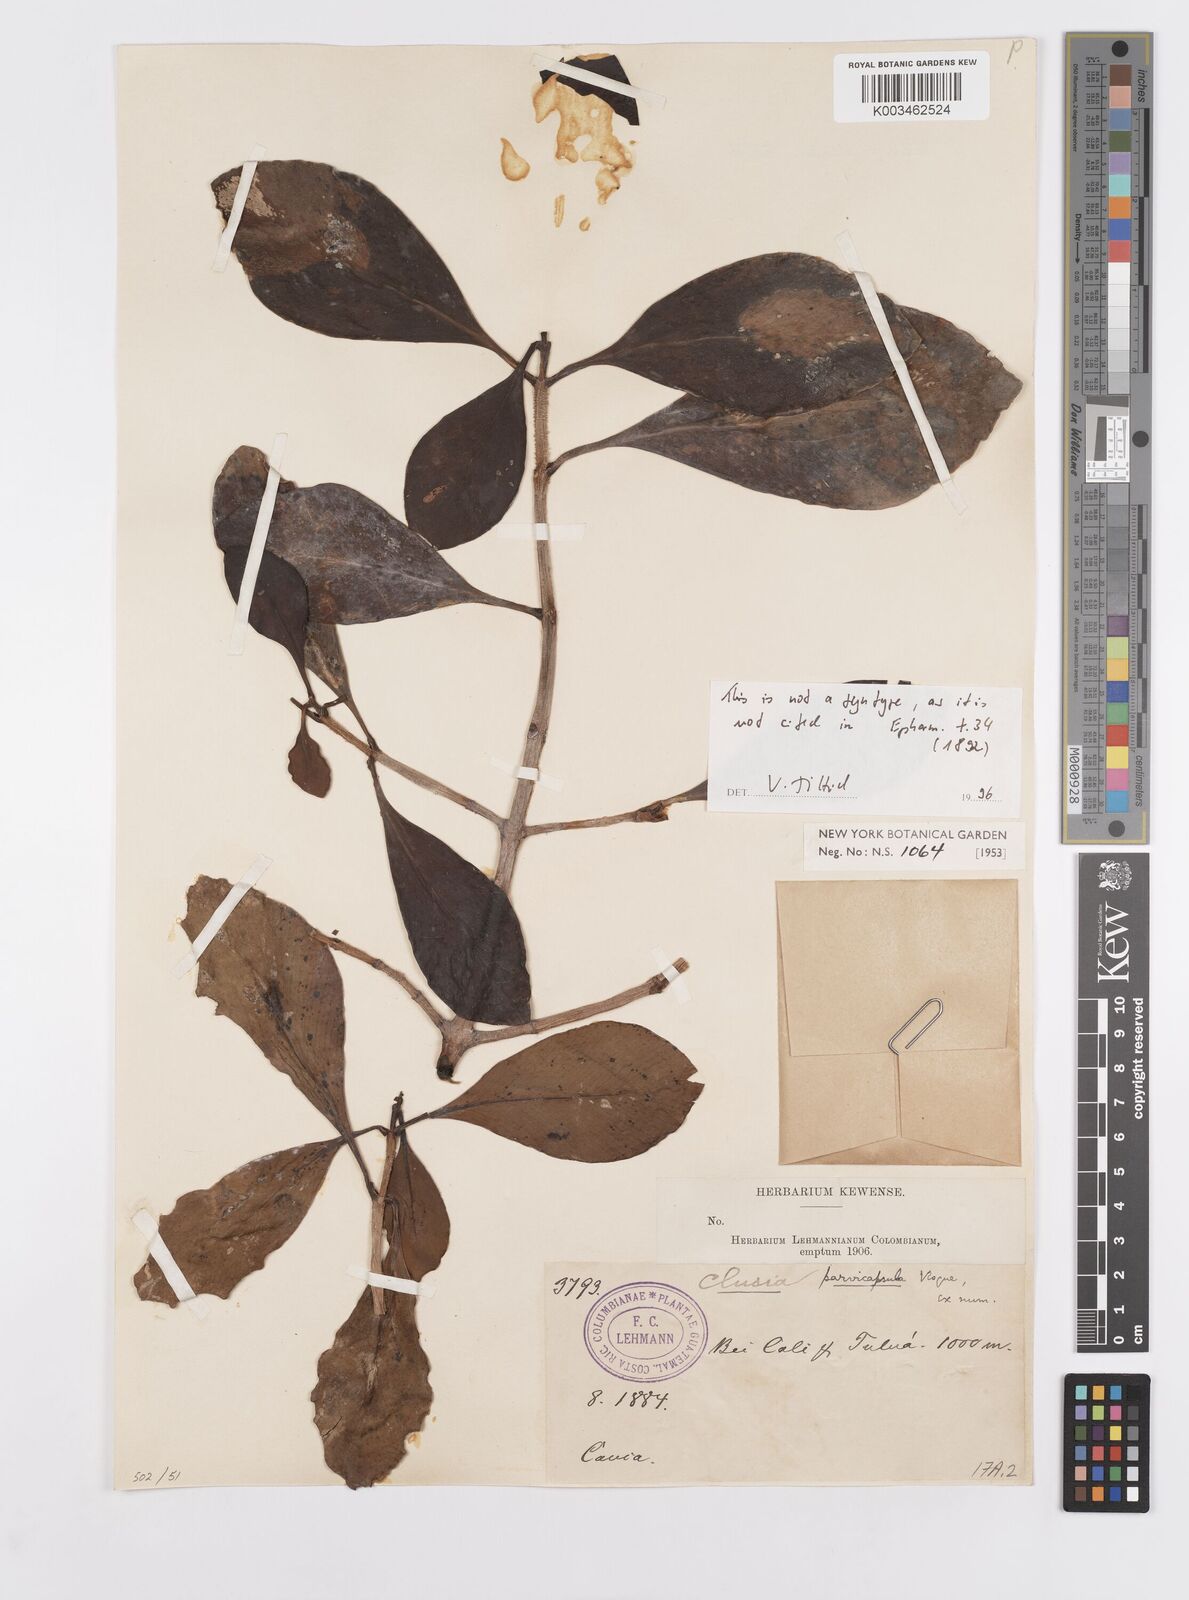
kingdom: Plantae
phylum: Tracheophyta
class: Magnoliopsida
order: Malpighiales
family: Clusiaceae
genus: Clusia
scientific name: Clusia minor
